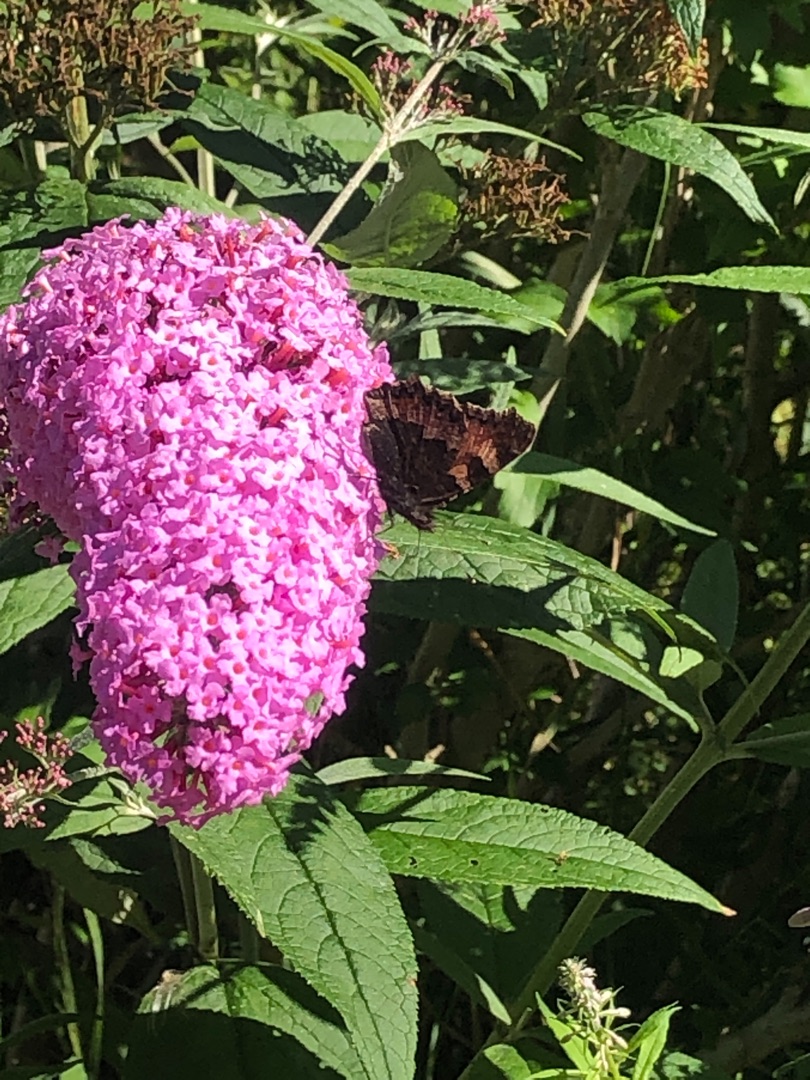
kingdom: Animalia
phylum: Arthropoda
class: Insecta
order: Lepidoptera
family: Nymphalidae
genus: Aglais
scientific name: Aglais urticae
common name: Nældens takvinge
